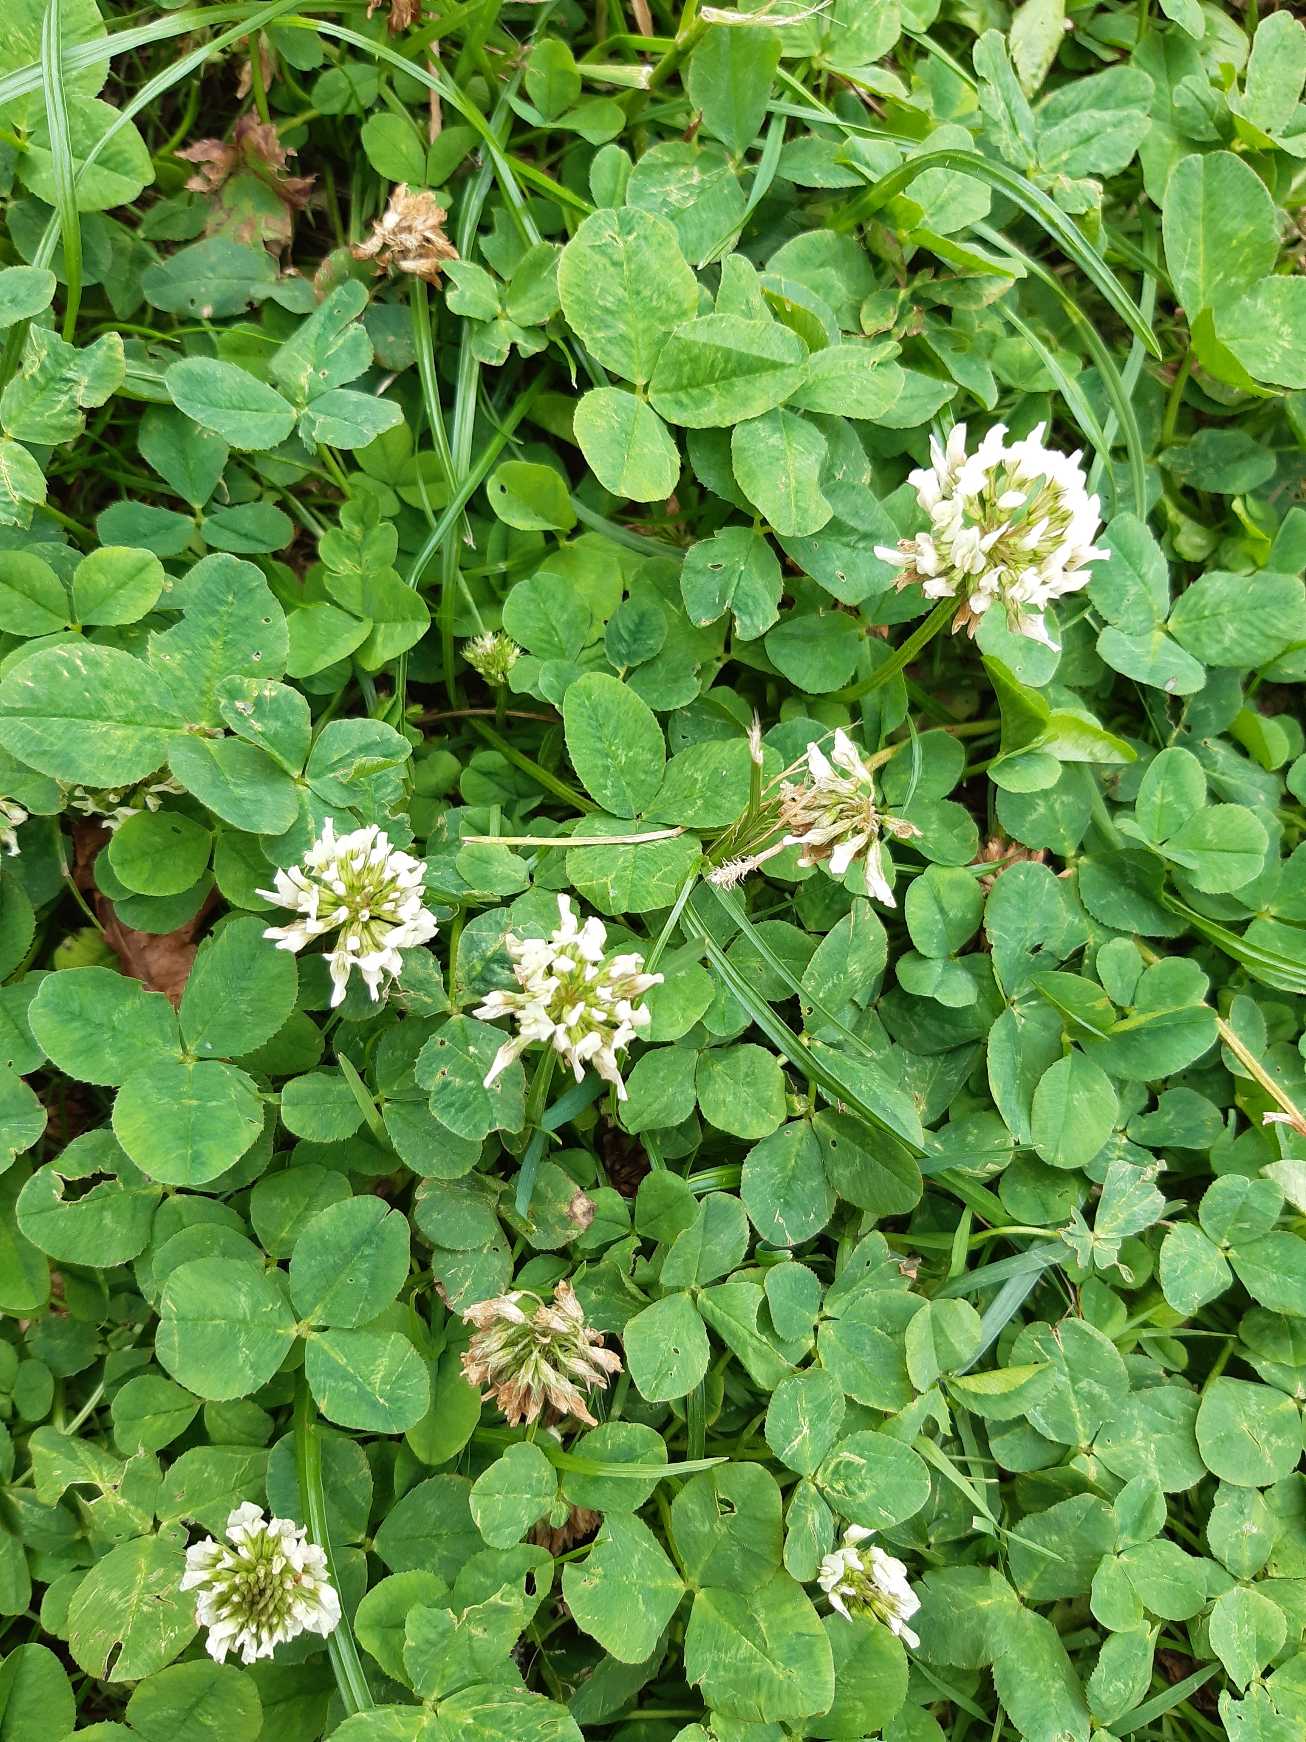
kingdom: Plantae
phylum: Tracheophyta
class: Magnoliopsida
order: Fabales
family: Fabaceae
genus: Trifolium
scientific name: Trifolium repens
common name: Hvid-kløver
